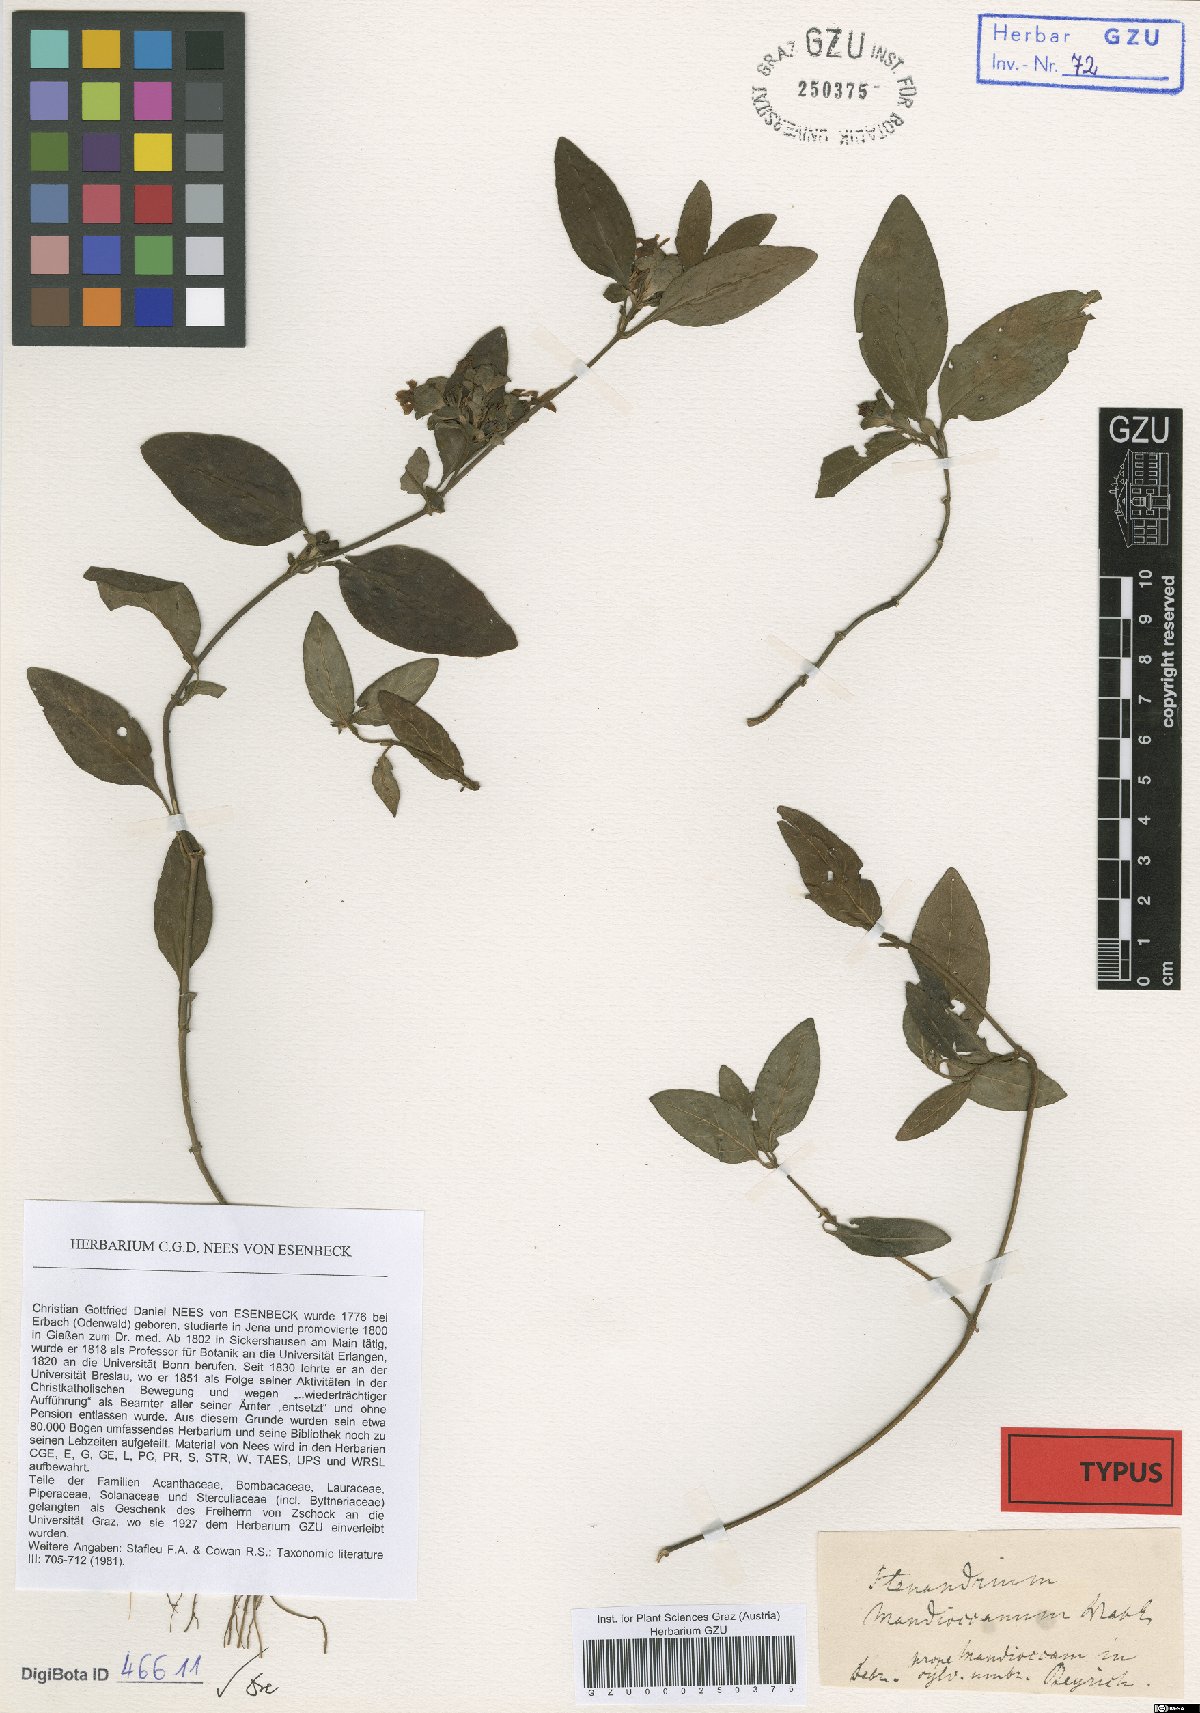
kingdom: Plantae
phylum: Tracheophyta
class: Magnoliopsida
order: Lamiales
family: Acanthaceae
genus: Stenandrium
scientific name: Stenandrium mandioccanum
